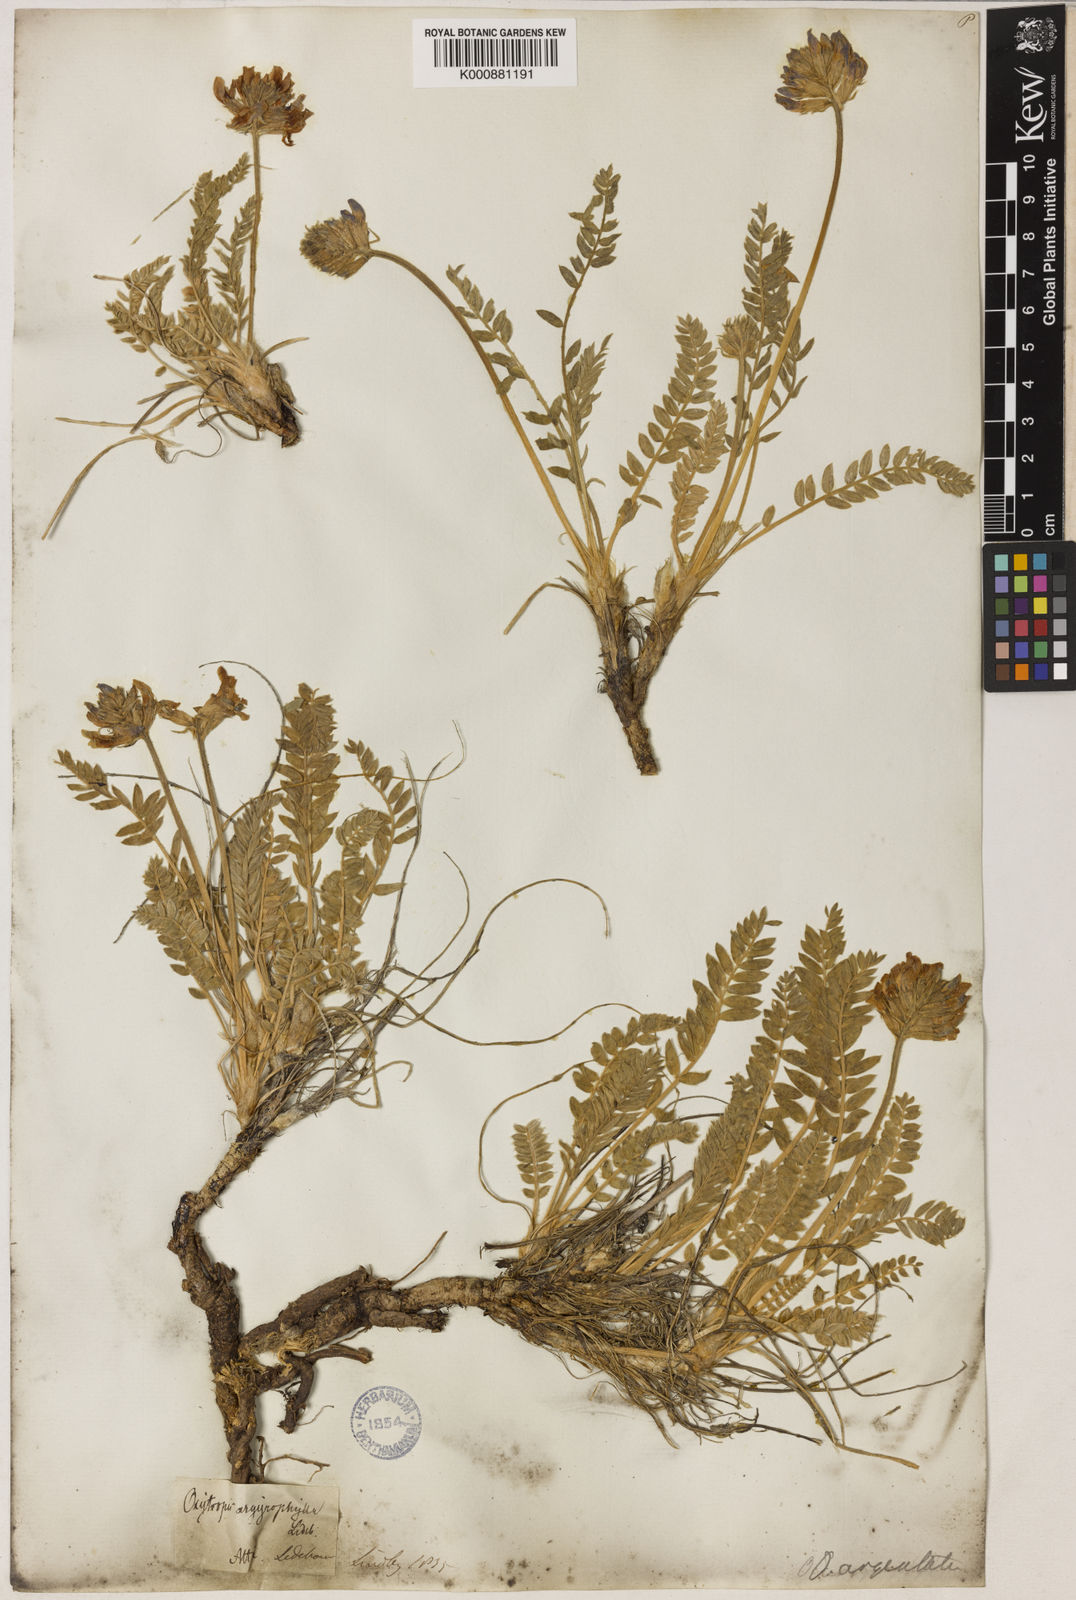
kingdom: Plantae
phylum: Tracheophyta
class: Magnoliopsida
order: Fabales
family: Fabaceae
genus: Oxytropis
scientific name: Oxytropis argentata
